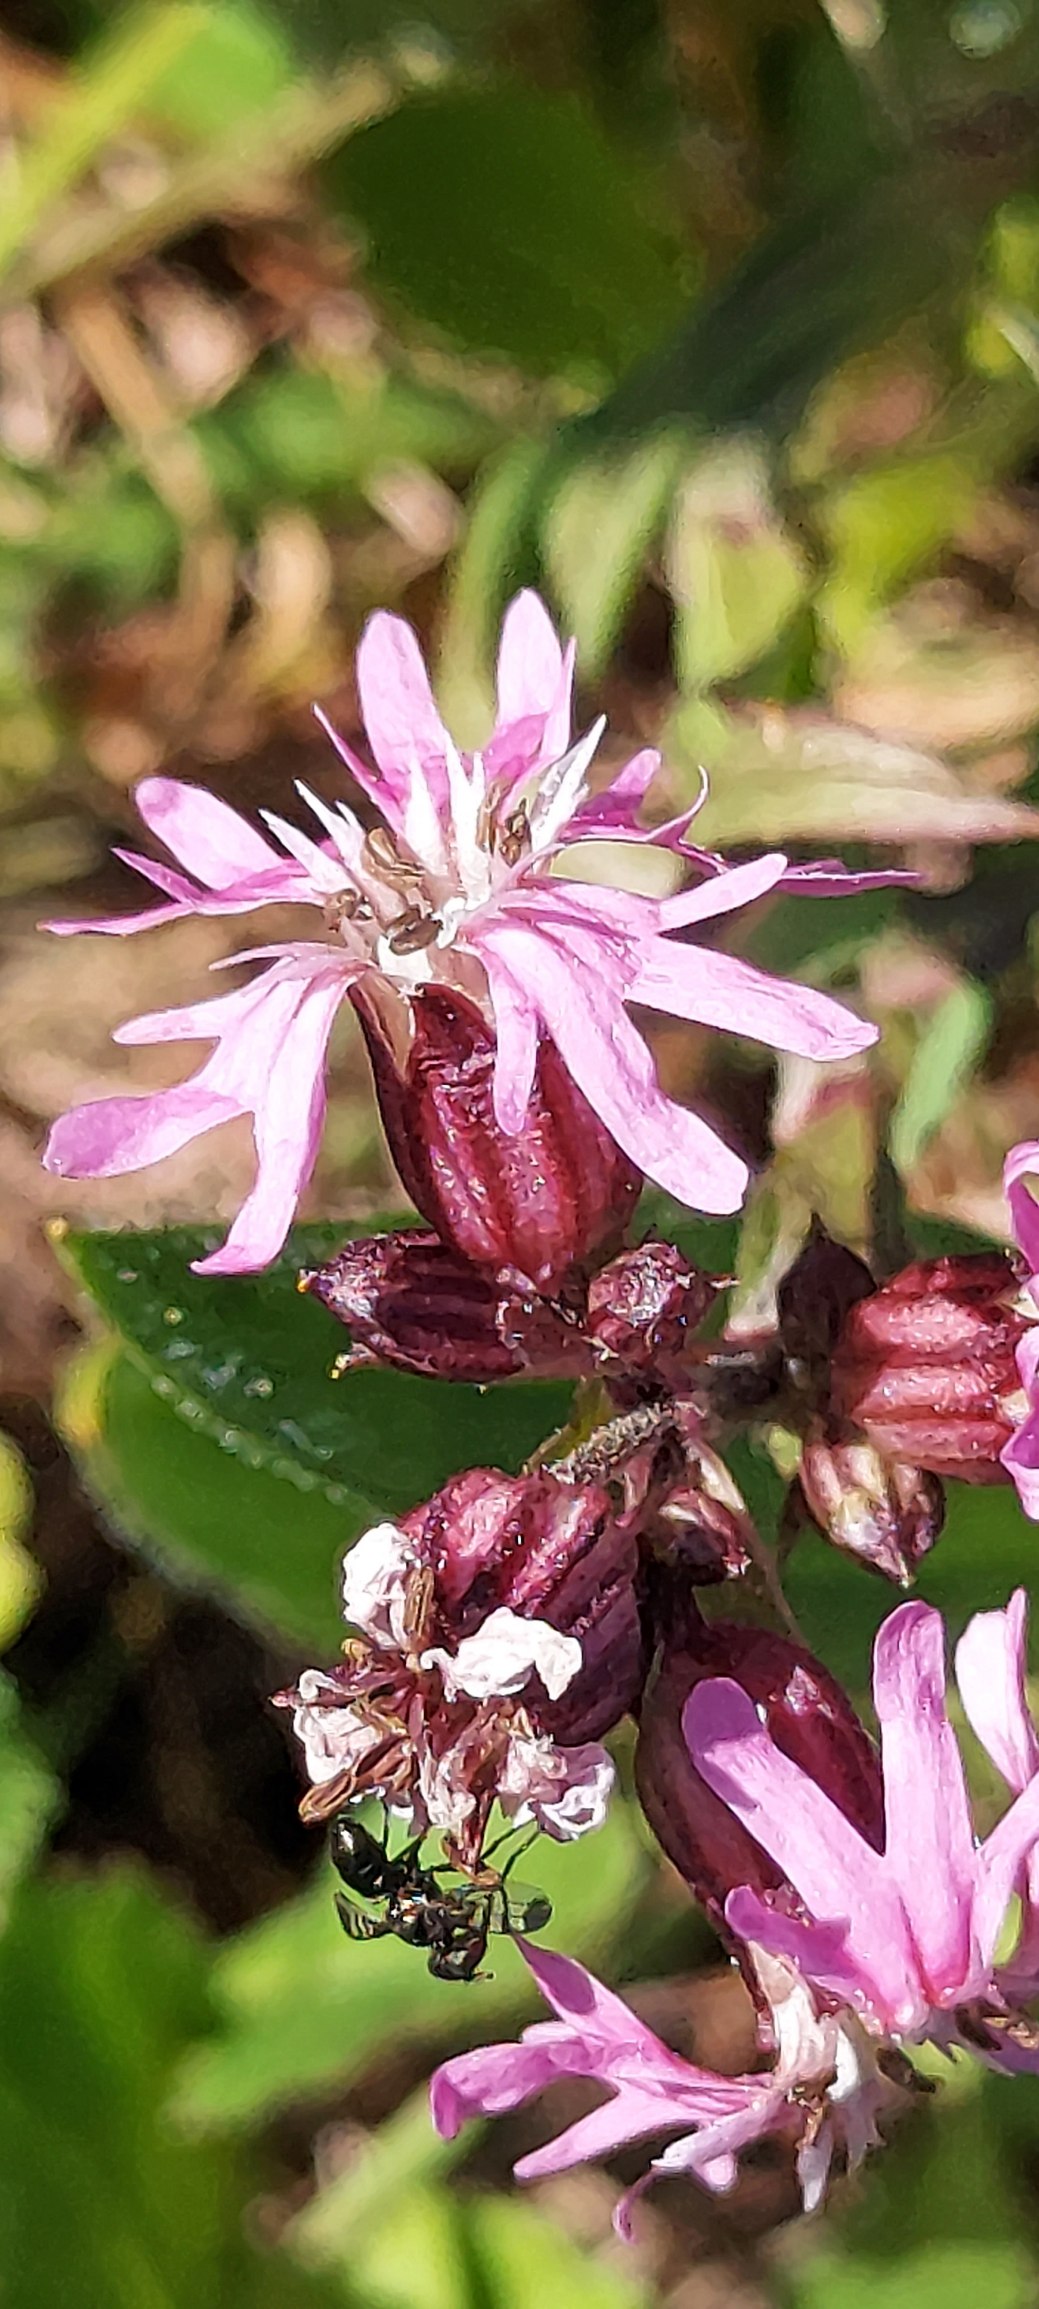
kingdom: Plantae
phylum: Tracheophyta
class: Magnoliopsida
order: Caryophyllales
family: Caryophyllaceae
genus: Silene
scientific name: Silene flos-cuculi
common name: Trævlekrone
